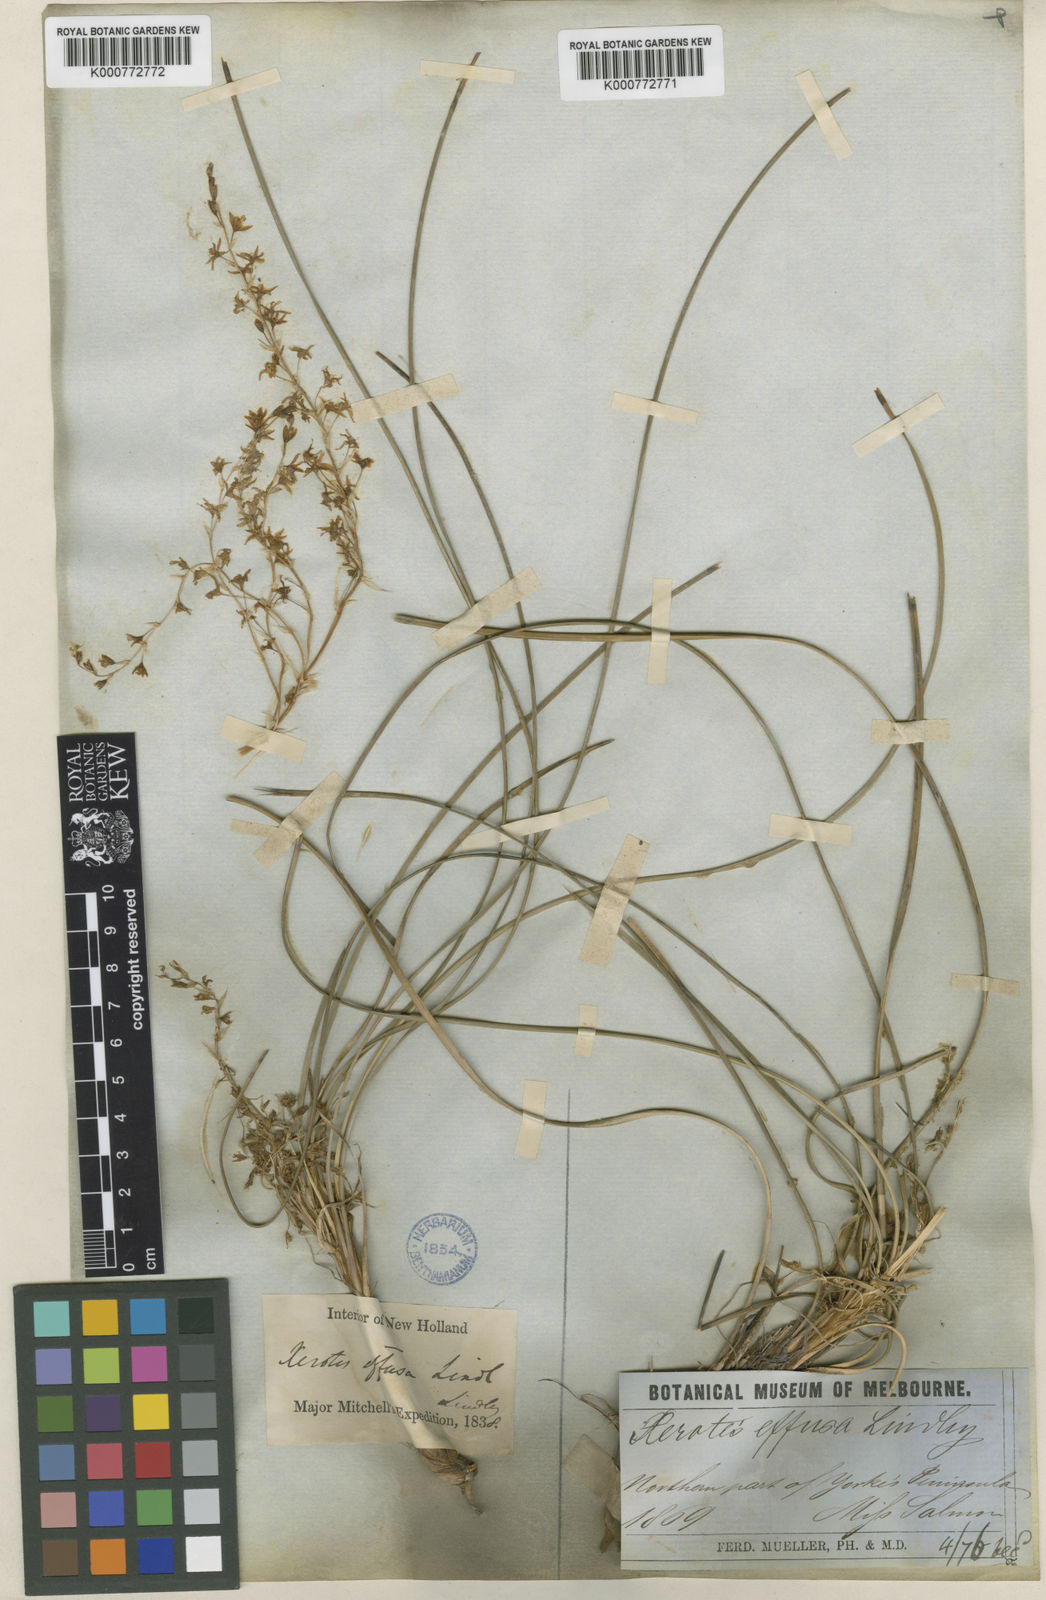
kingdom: Plantae
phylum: Tracheophyta
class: Liliopsida
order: Asparagales
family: Asparagaceae
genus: Lomandra
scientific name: Lomandra effusa
